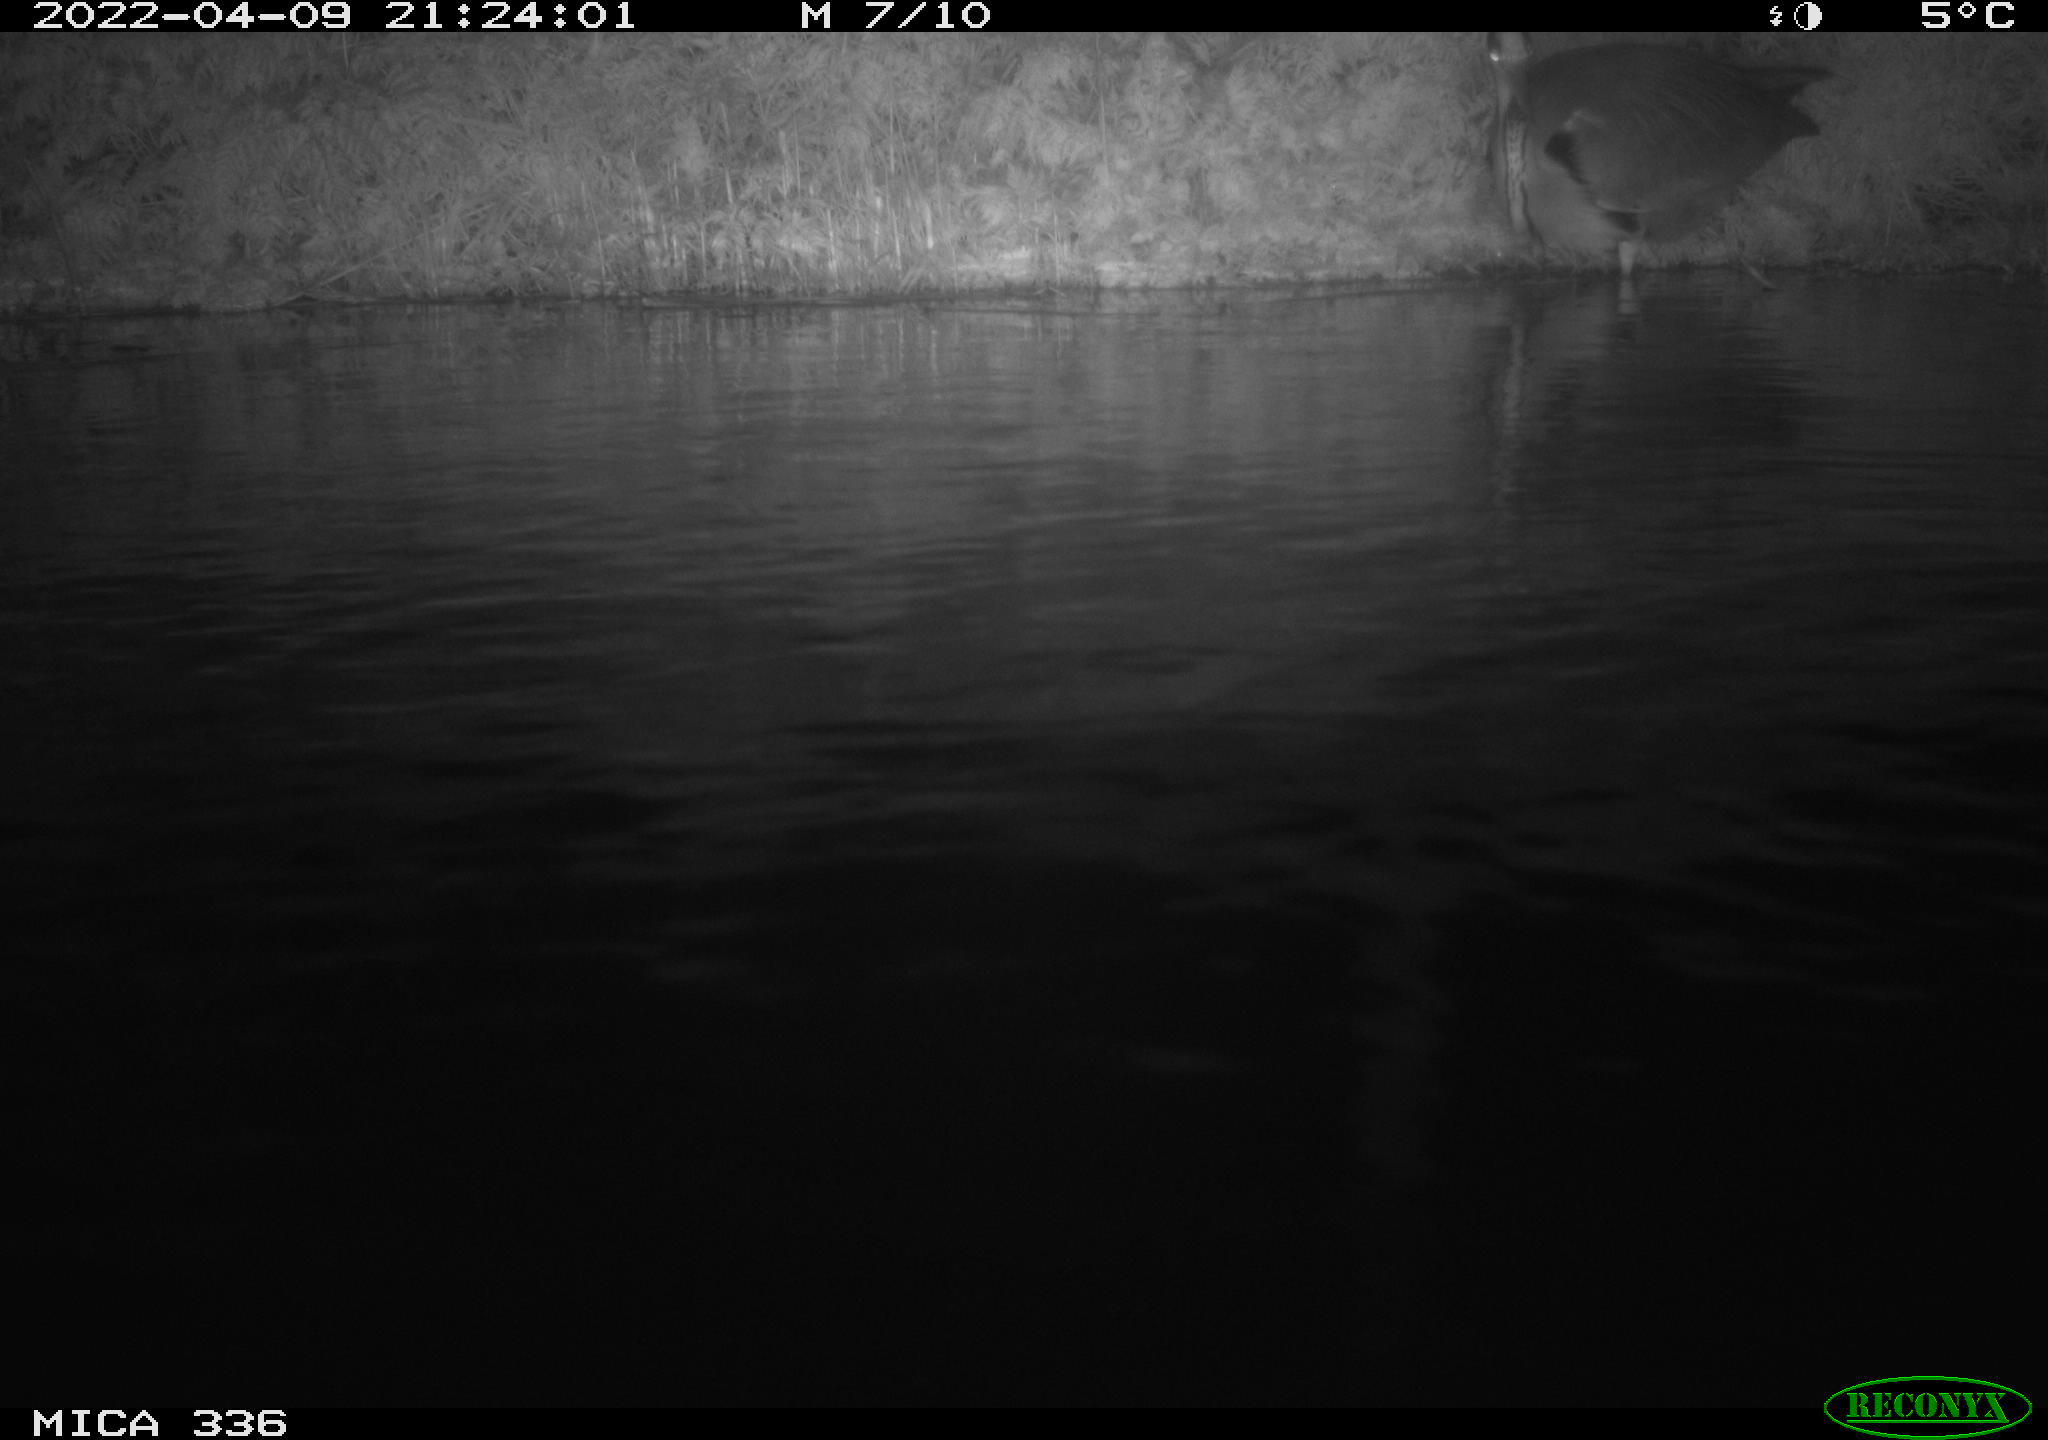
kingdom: Animalia
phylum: Chordata
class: Aves
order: Podicipediformes
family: Podicipedidae
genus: Podiceps
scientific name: Podiceps cristatus
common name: Great crested grebe
